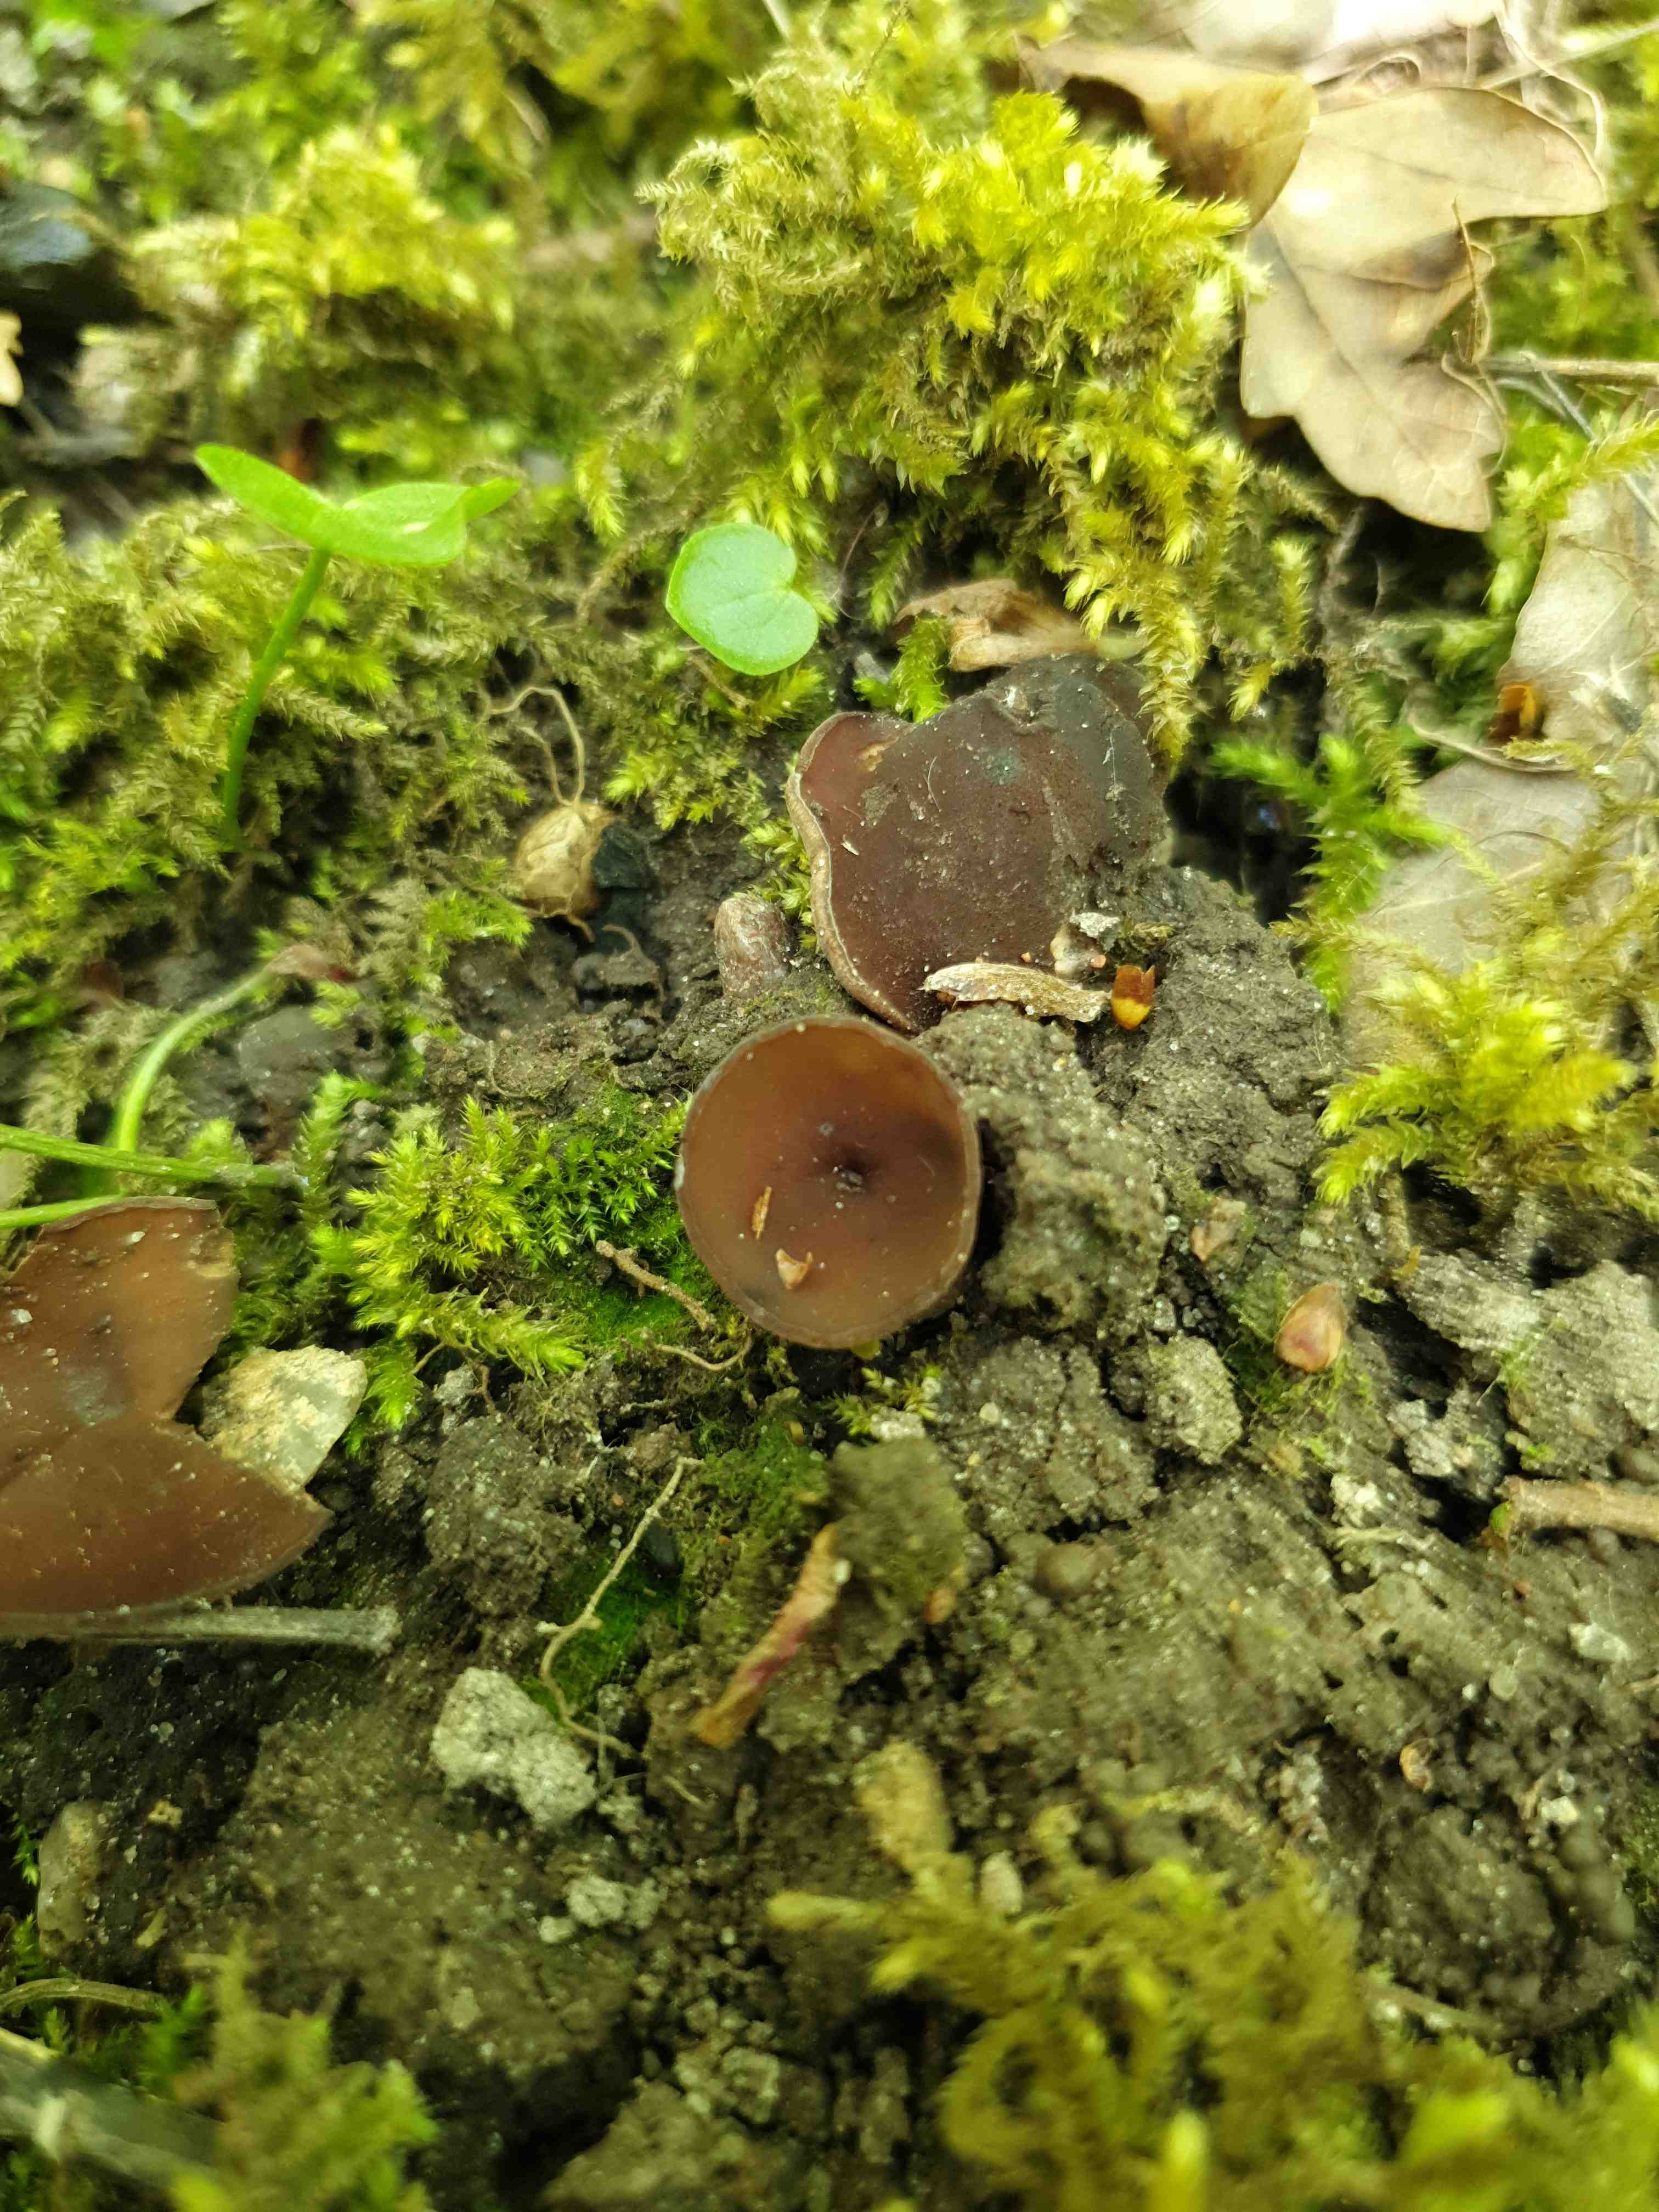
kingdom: Fungi
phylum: Ascomycota
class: Leotiomycetes
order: Helotiales
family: Sclerotiniaceae
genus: Dumontinia
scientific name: Dumontinia tuberosa
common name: anemone-knoldskive
